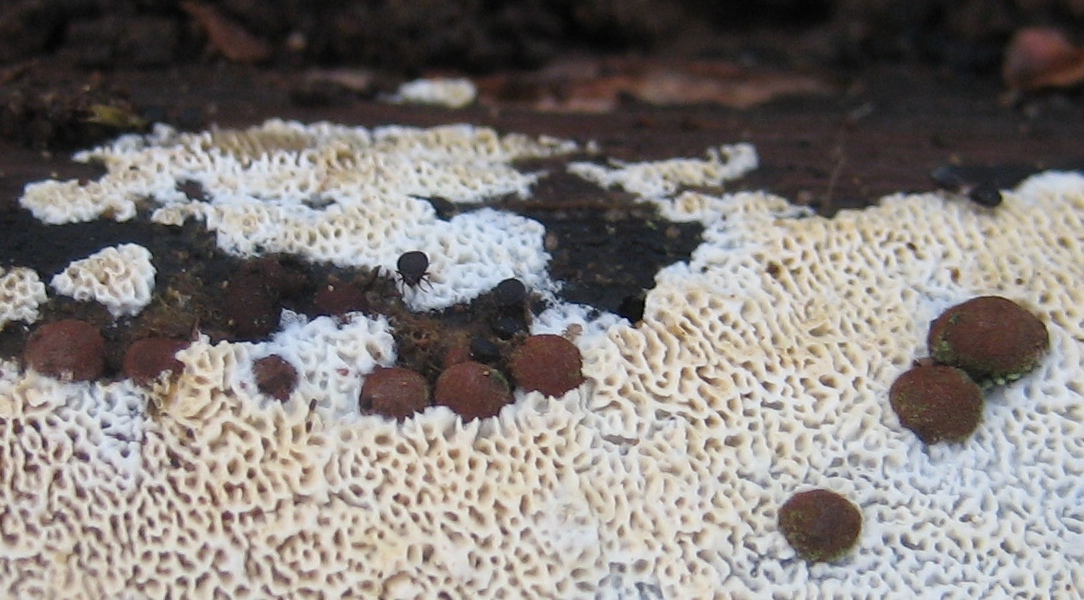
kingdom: Fungi
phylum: Ascomycota
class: Sordariomycetes
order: Xylariales
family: Hypoxylaceae
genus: Hypoxylon
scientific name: Hypoxylon howeanum
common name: halvkugleformet kulbær
